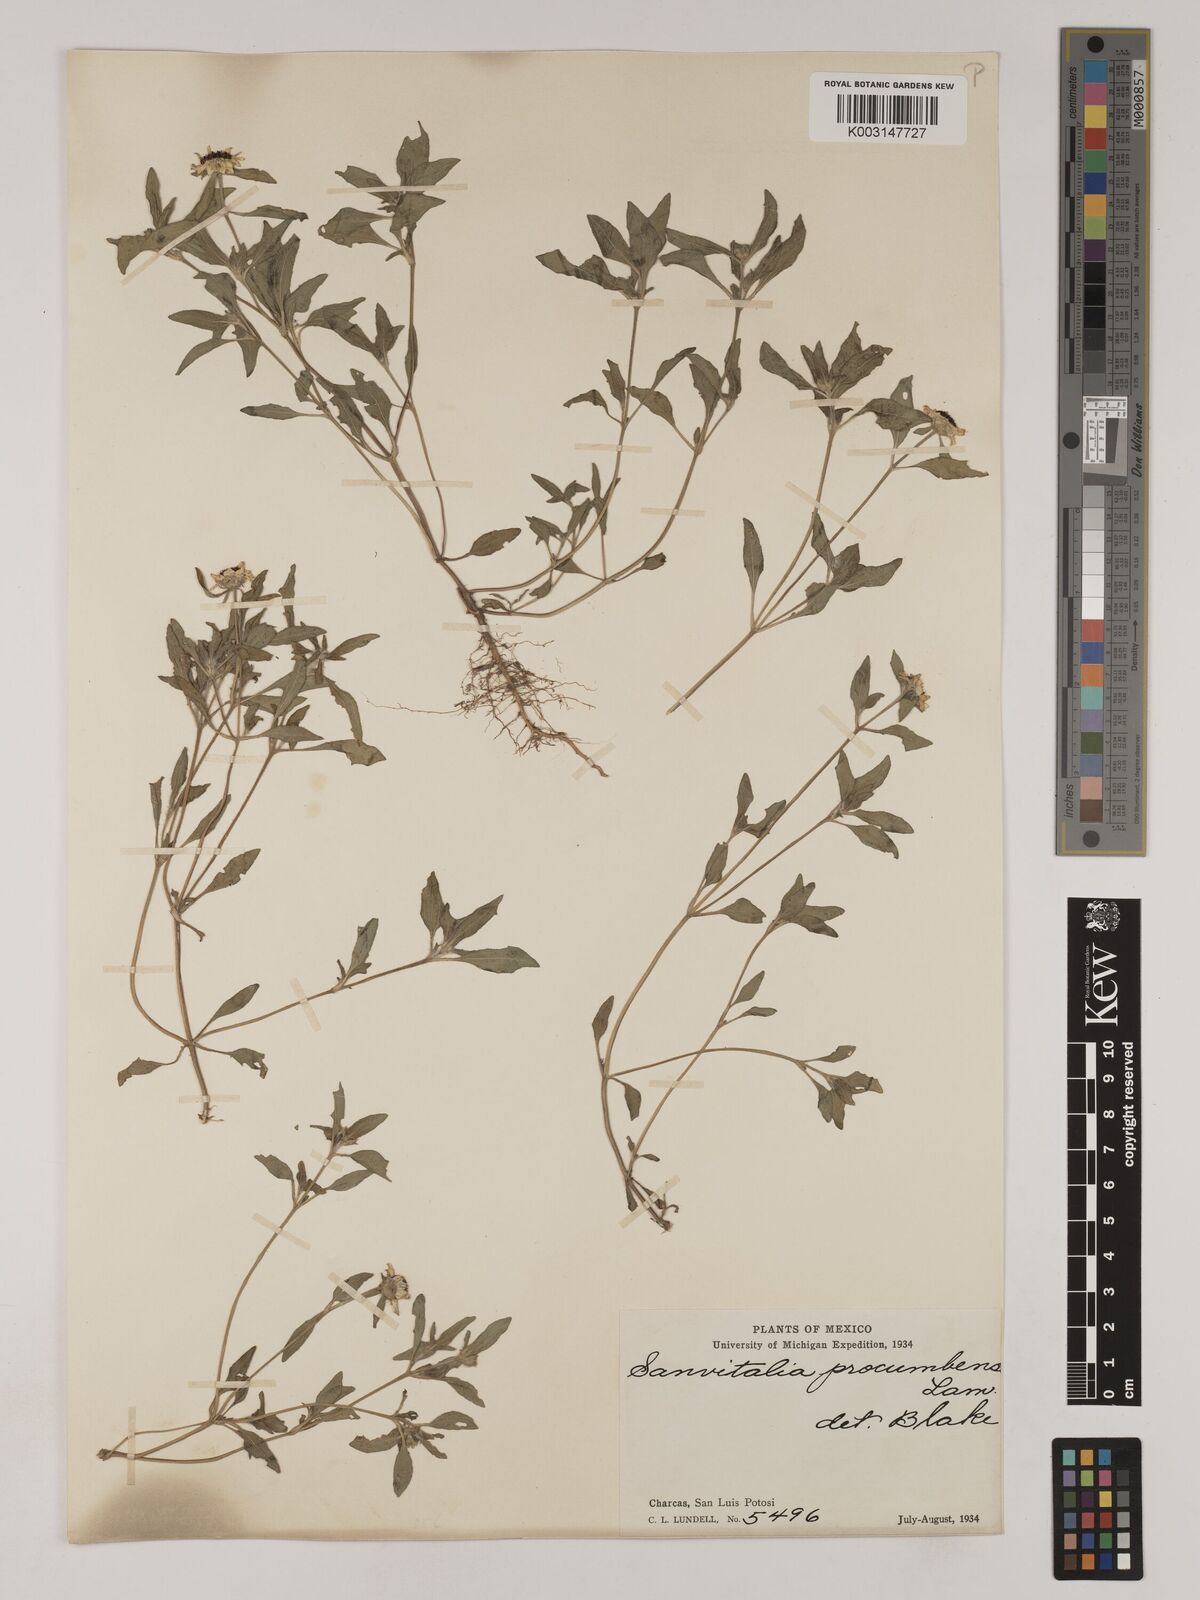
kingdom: Plantae
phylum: Tracheophyta
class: Magnoliopsida
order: Asterales
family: Asteraceae
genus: Sanvitalia
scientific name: Sanvitalia procumbens
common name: Mexican creeping zinnia
